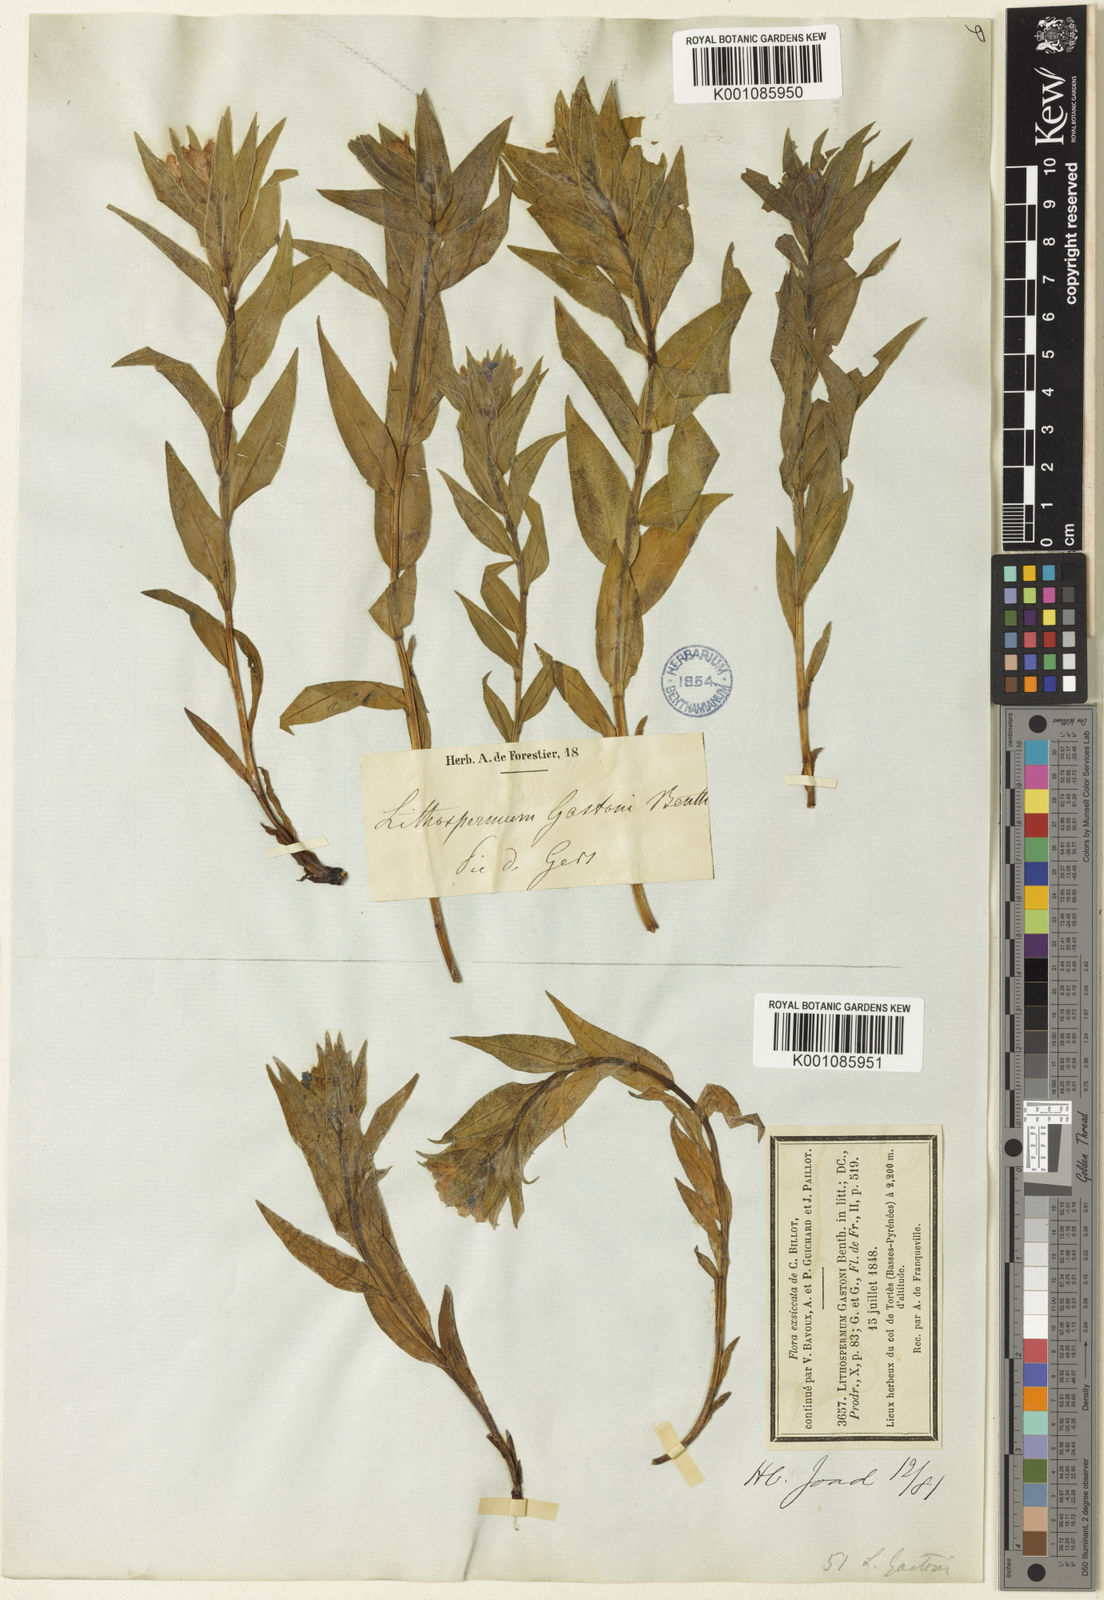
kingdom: Plantae
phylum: Tracheophyta
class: Magnoliopsida
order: Boraginales
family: Boraginaceae
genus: Glandora
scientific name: Glandora gastonii
